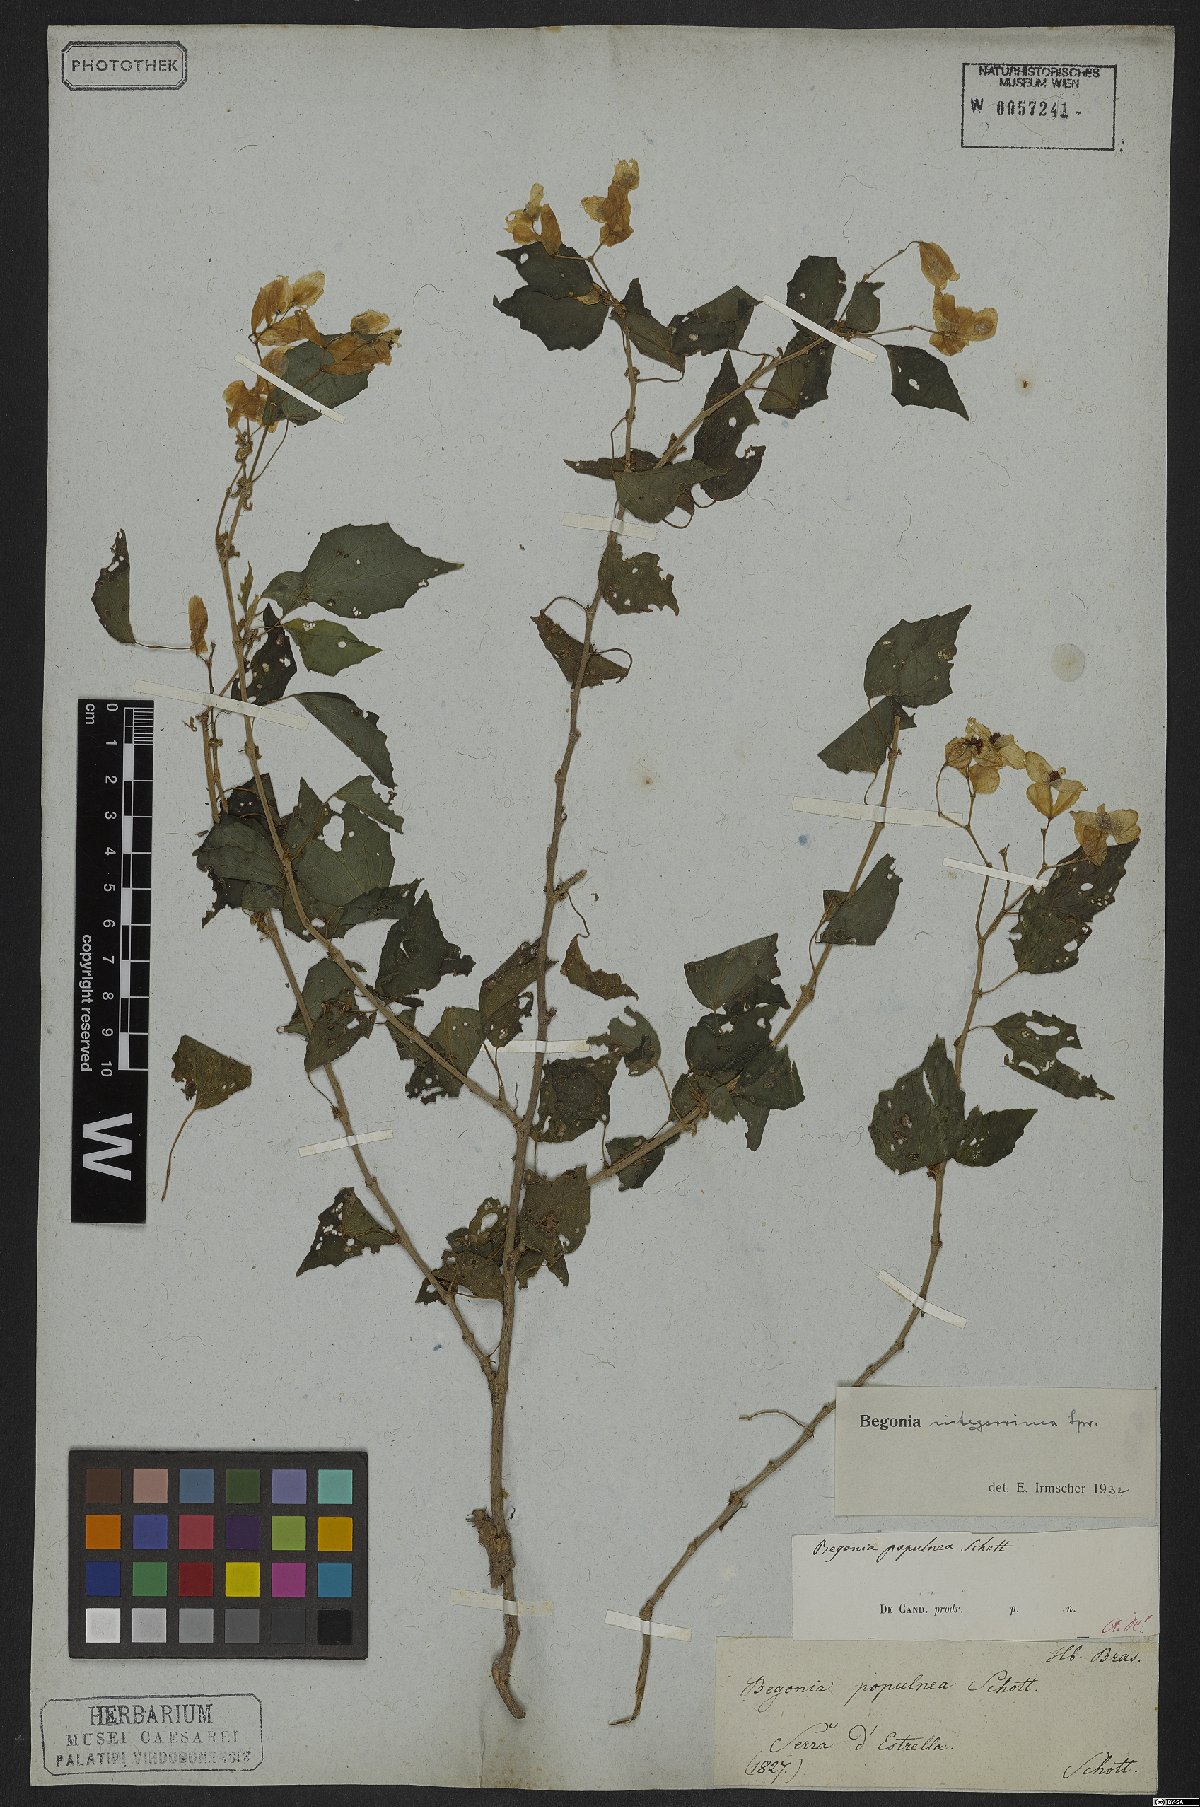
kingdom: Plantae
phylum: Tracheophyta
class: Magnoliopsida
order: Cucurbitales
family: Begoniaceae
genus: Begonia
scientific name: Begonia integerrima
